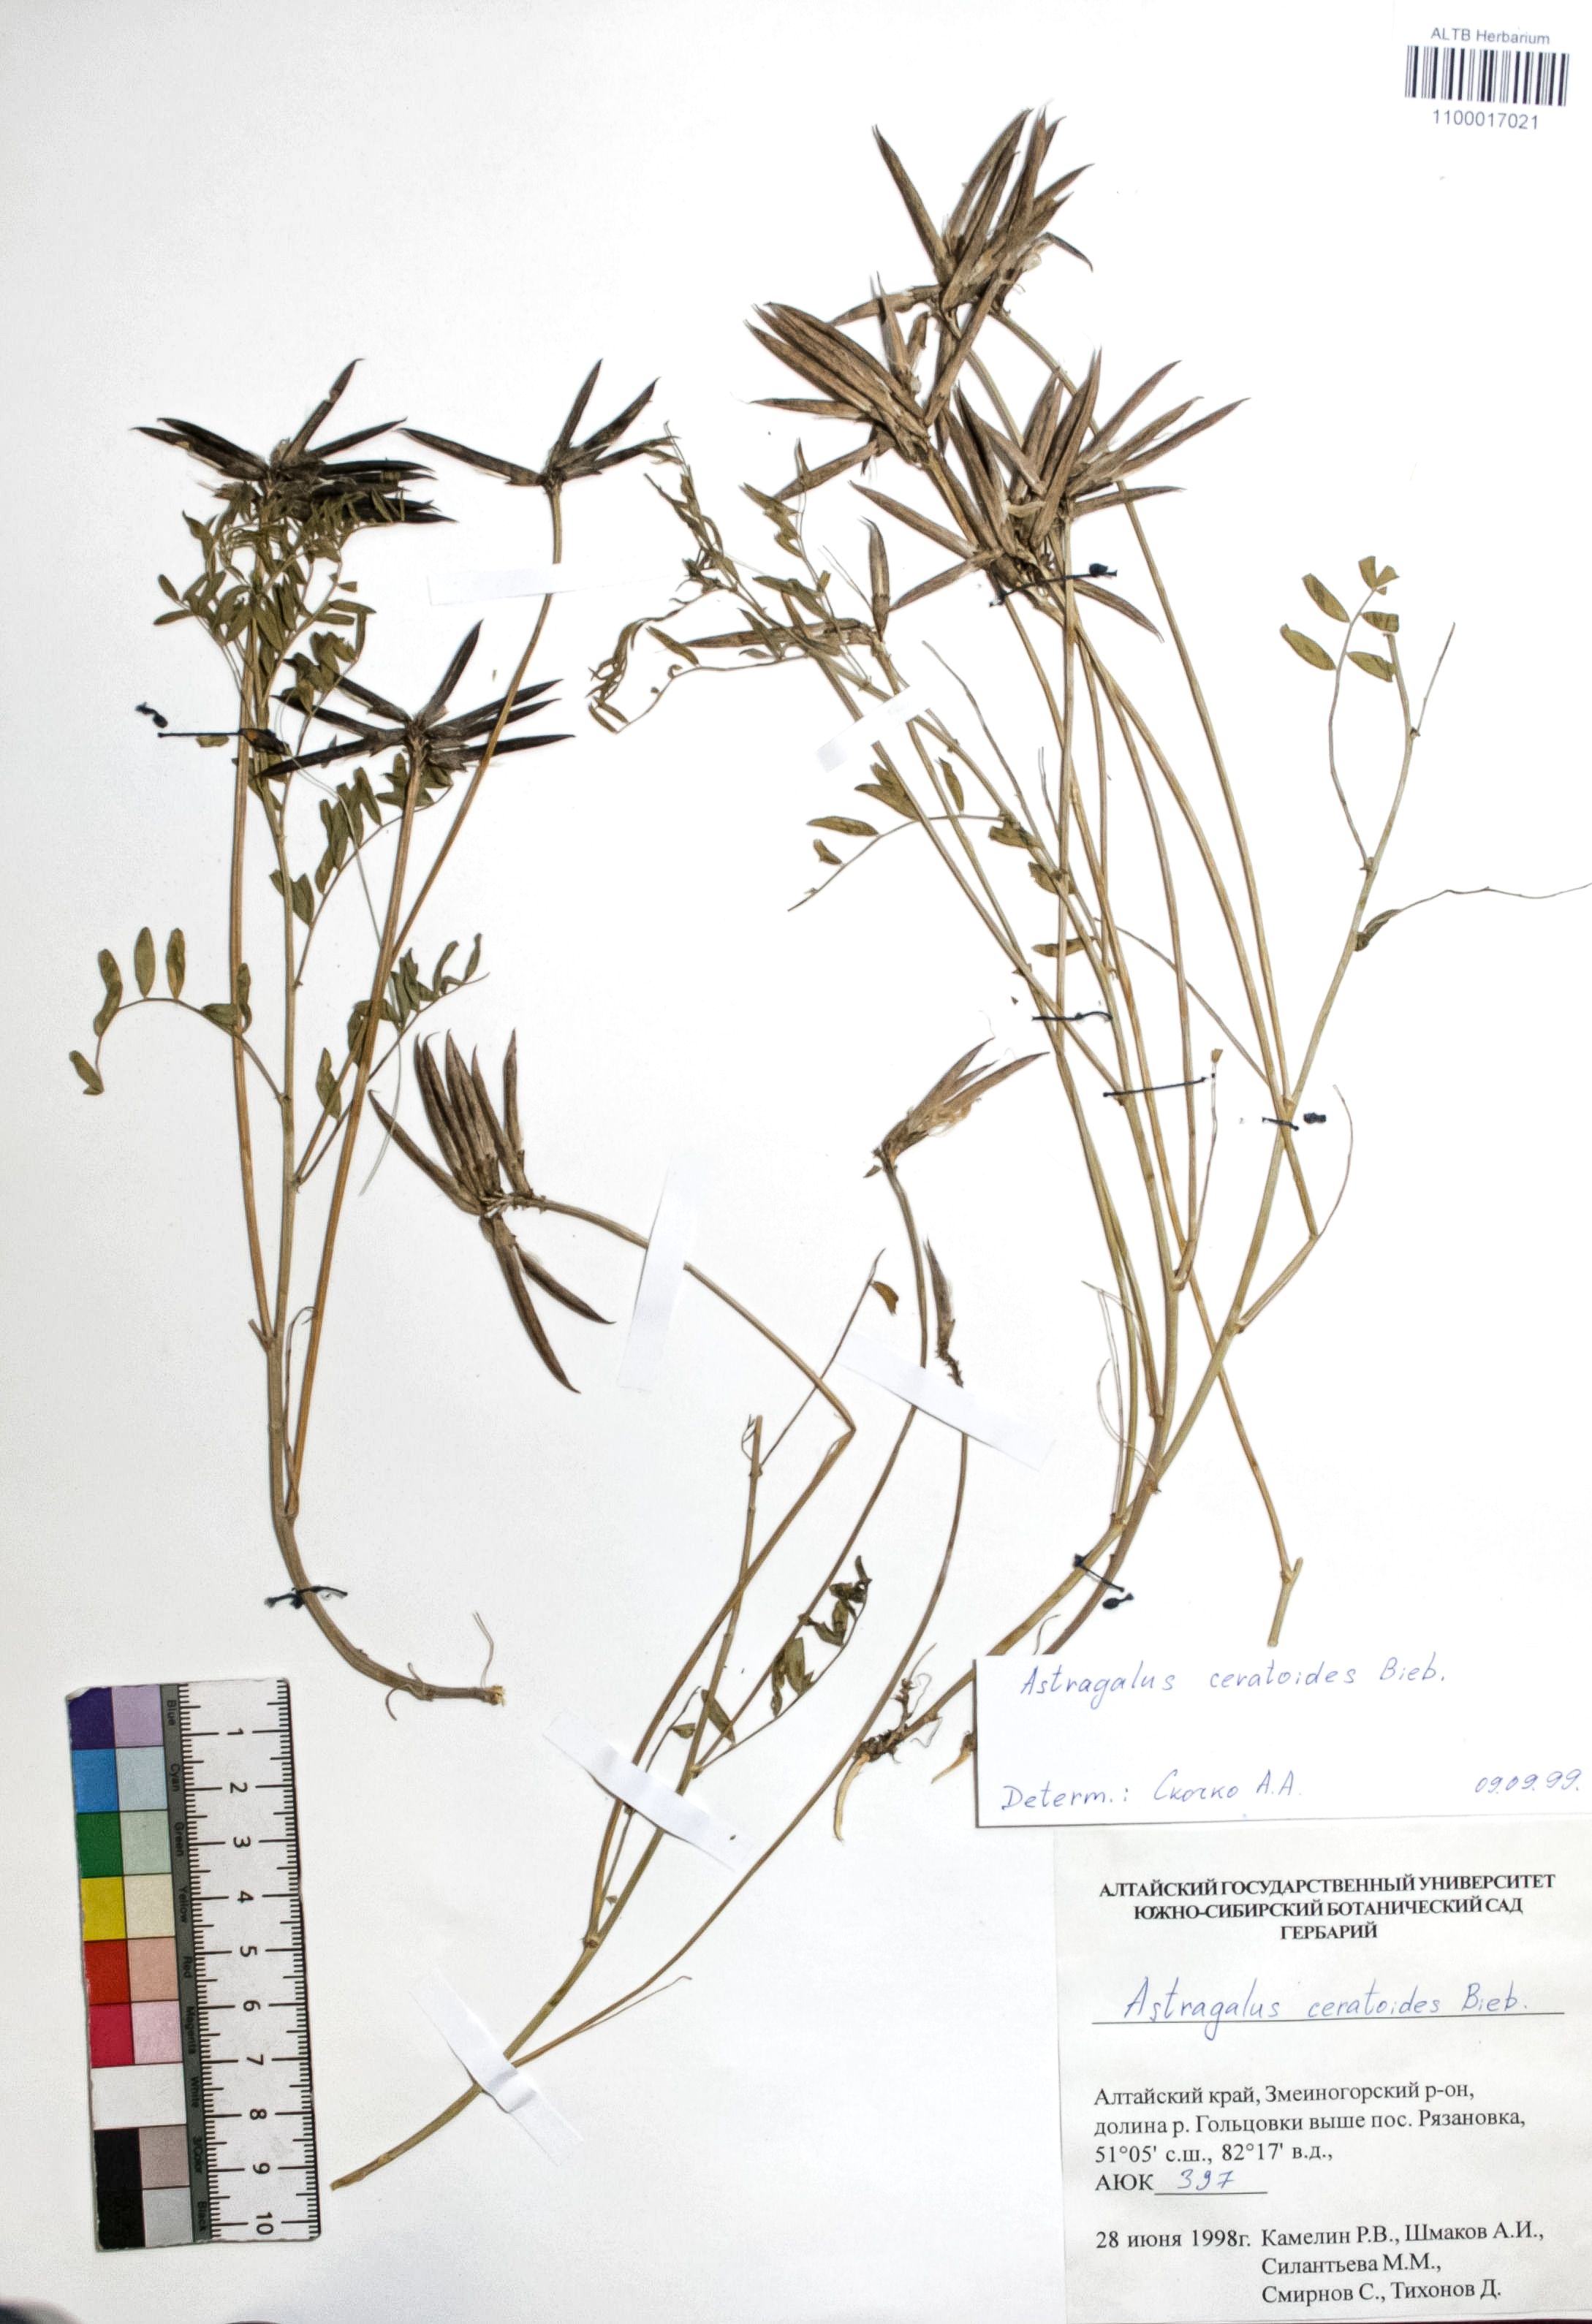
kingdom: Plantae
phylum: Tracheophyta
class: Magnoliopsida
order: Fabales
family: Fabaceae
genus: Astragalus
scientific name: Astragalus ceratoides
